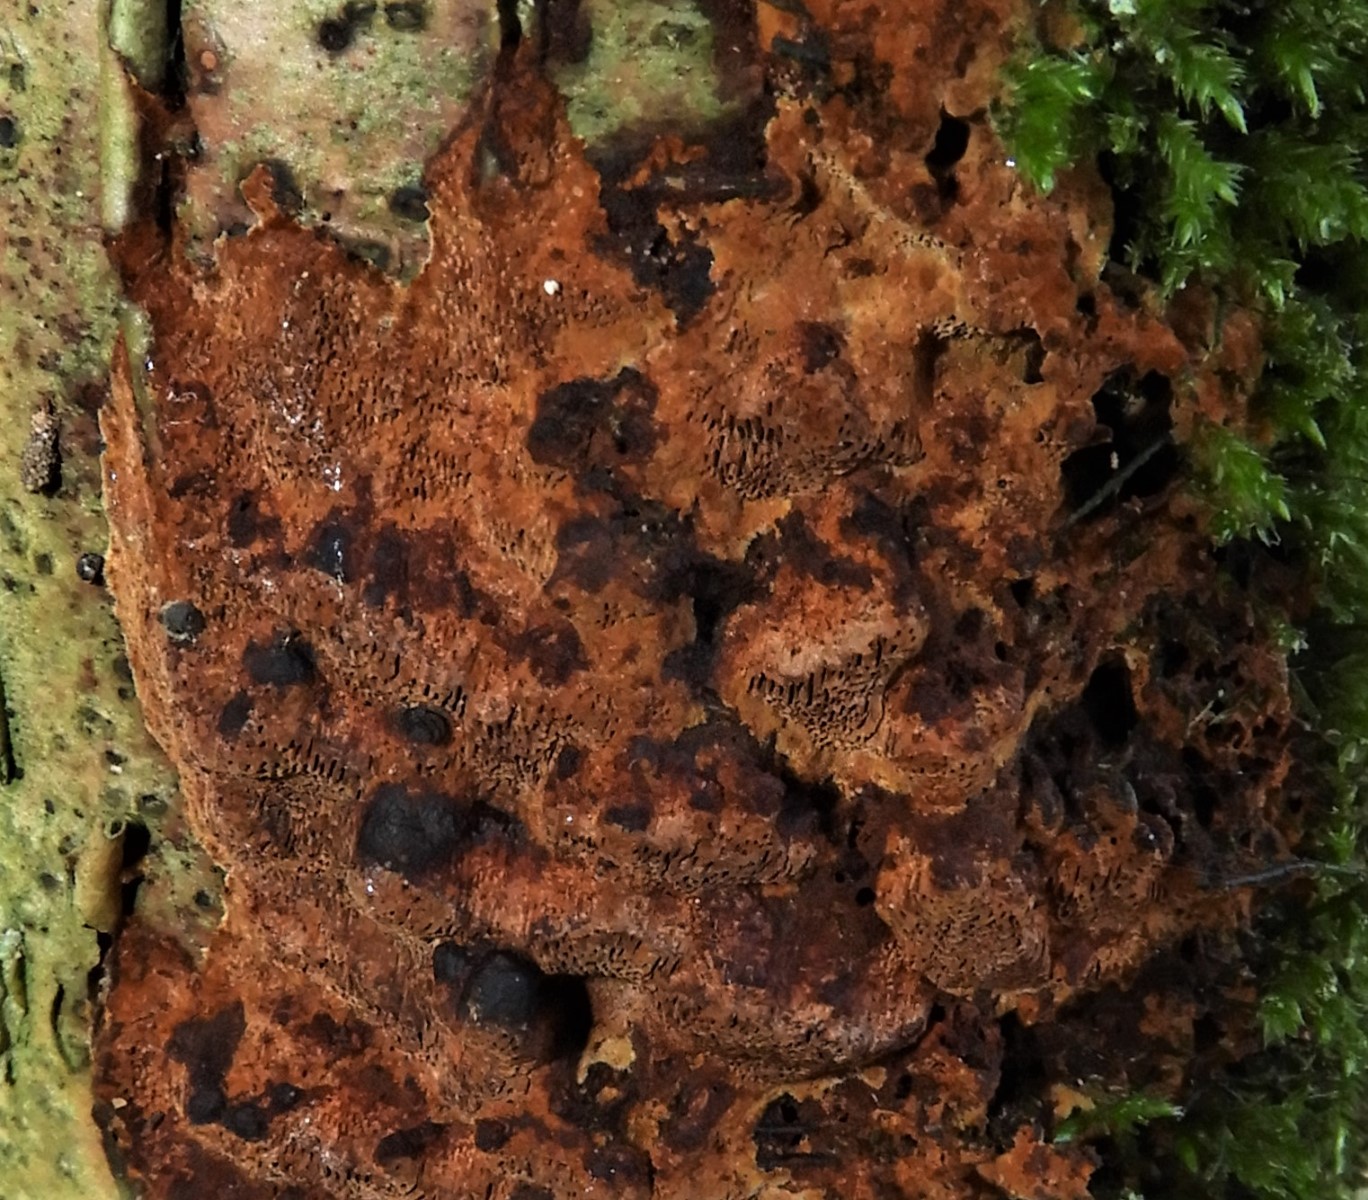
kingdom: Fungi
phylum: Basidiomycota
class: Agaricomycetes
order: Hymenochaetales
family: Hymenochaetaceae
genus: Fuscoporia
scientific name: Fuscoporia
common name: Ildporesvamp
